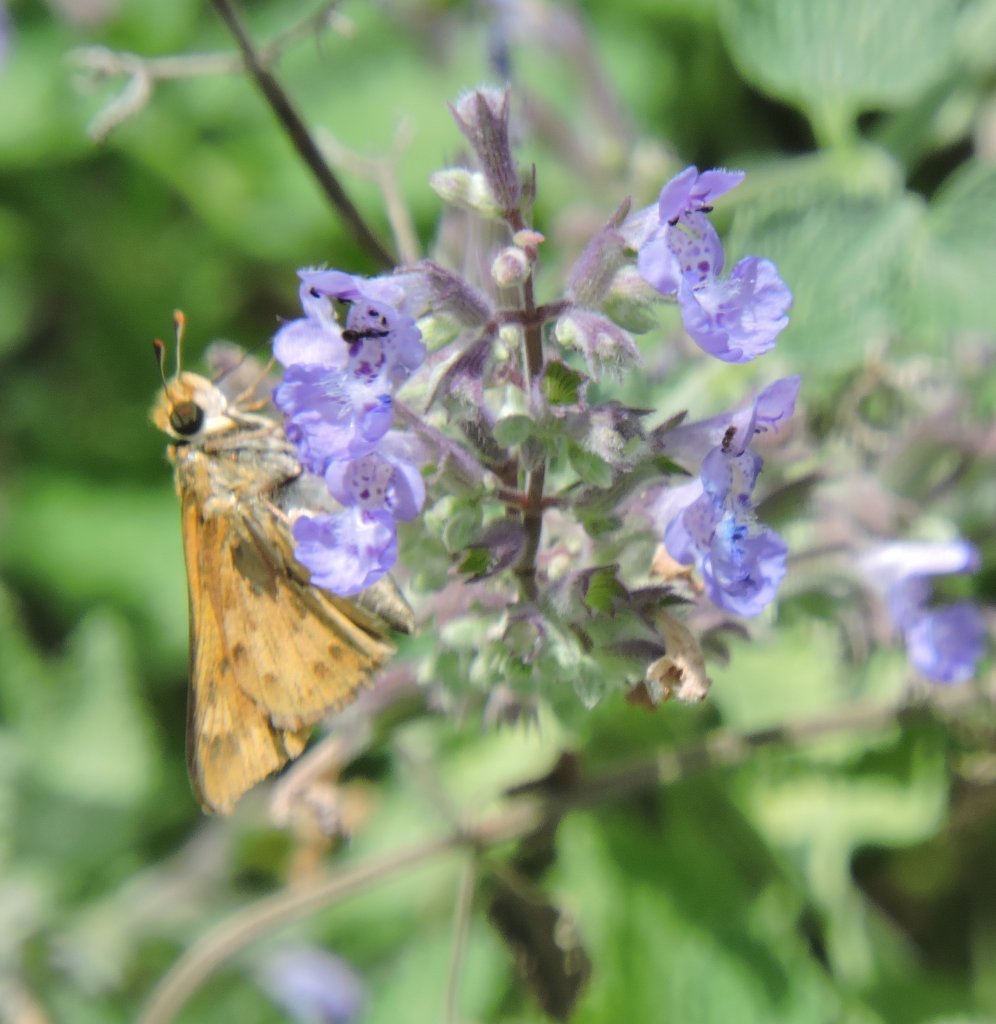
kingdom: Animalia
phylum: Arthropoda
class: Insecta
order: Lepidoptera
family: Hesperiidae
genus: Hylephila
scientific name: Hylephila phyleus
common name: Fiery Skipper
